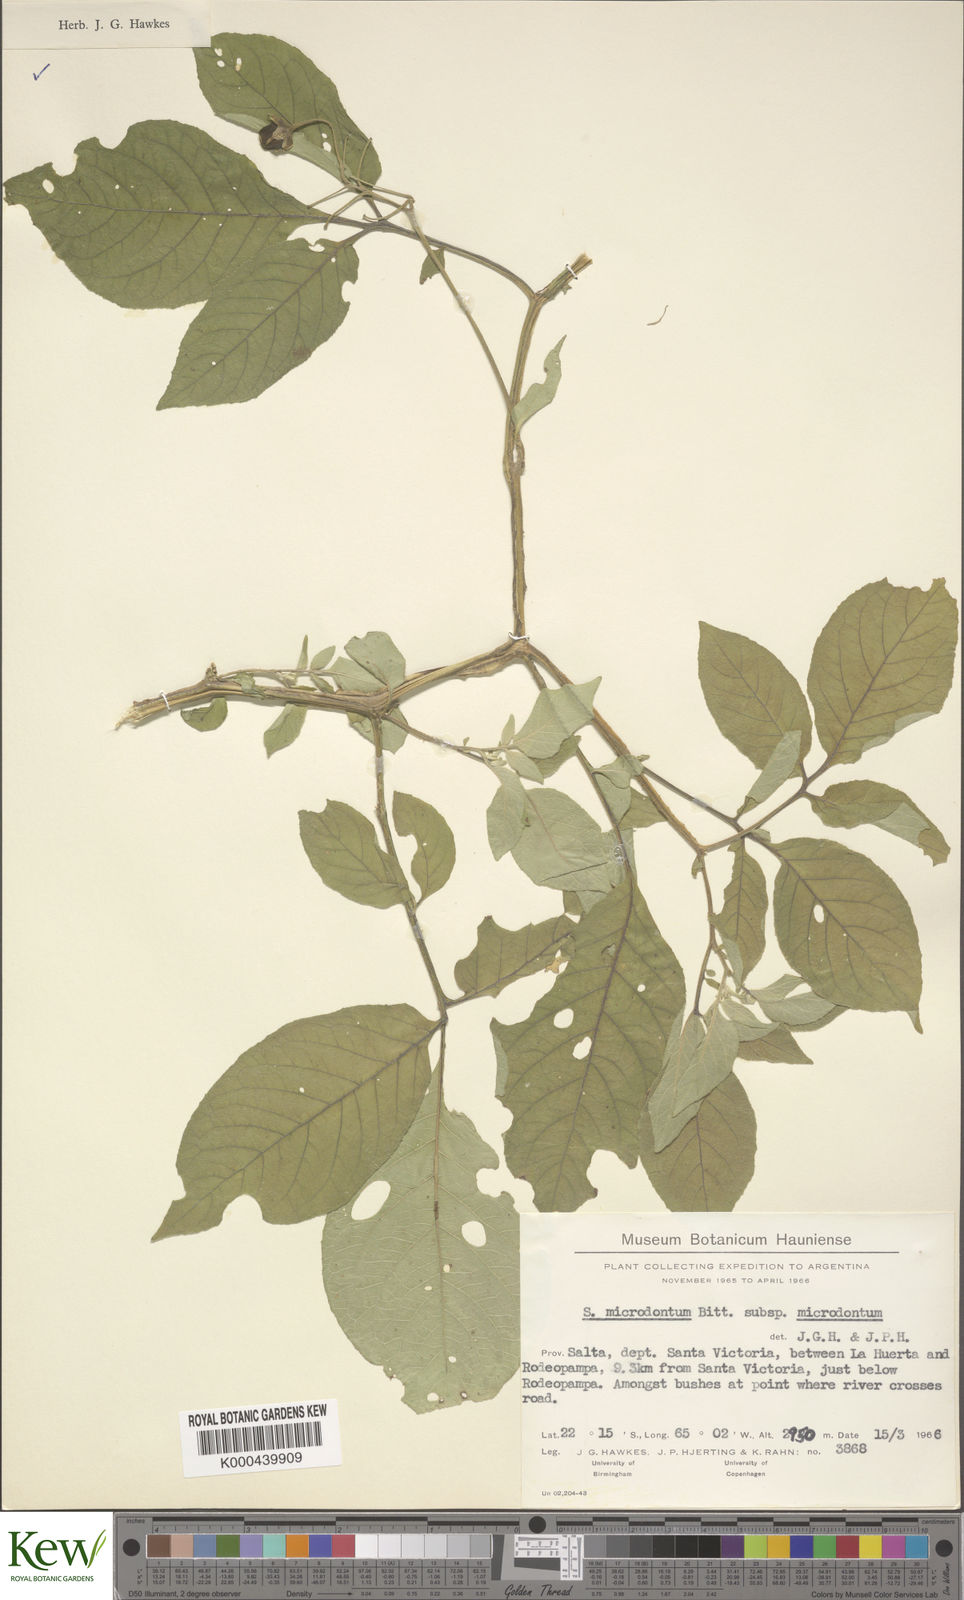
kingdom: Plantae
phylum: Tracheophyta
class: Magnoliopsida
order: Solanales
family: Solanaceae
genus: Solanum
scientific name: Solanum microdontum
